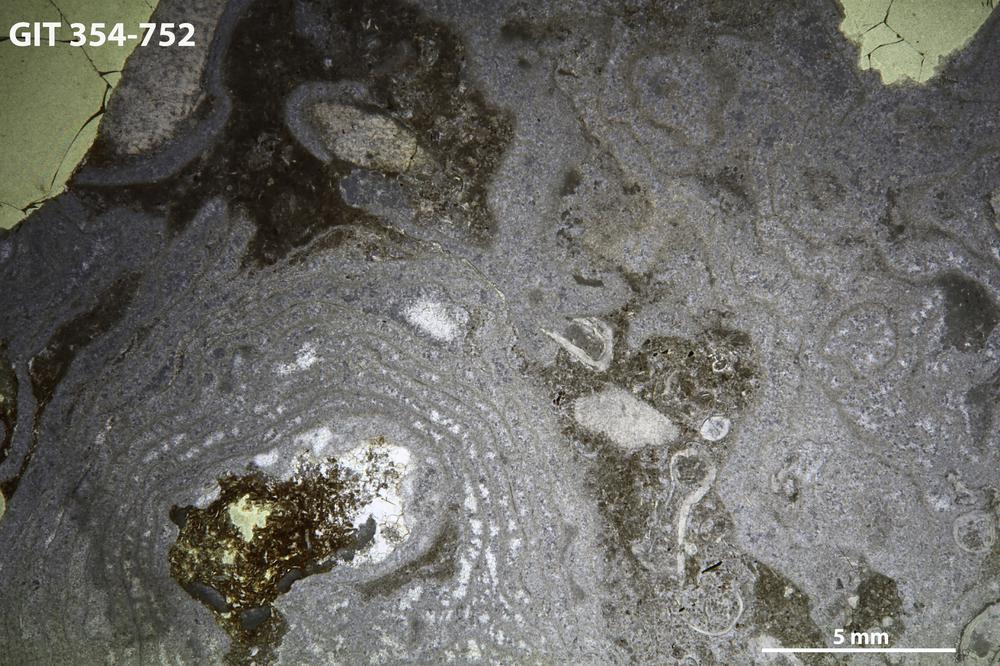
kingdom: Animalia
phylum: Porifera
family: Stromatoporellidae
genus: Simplexodictyon
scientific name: Simplexodictyon
